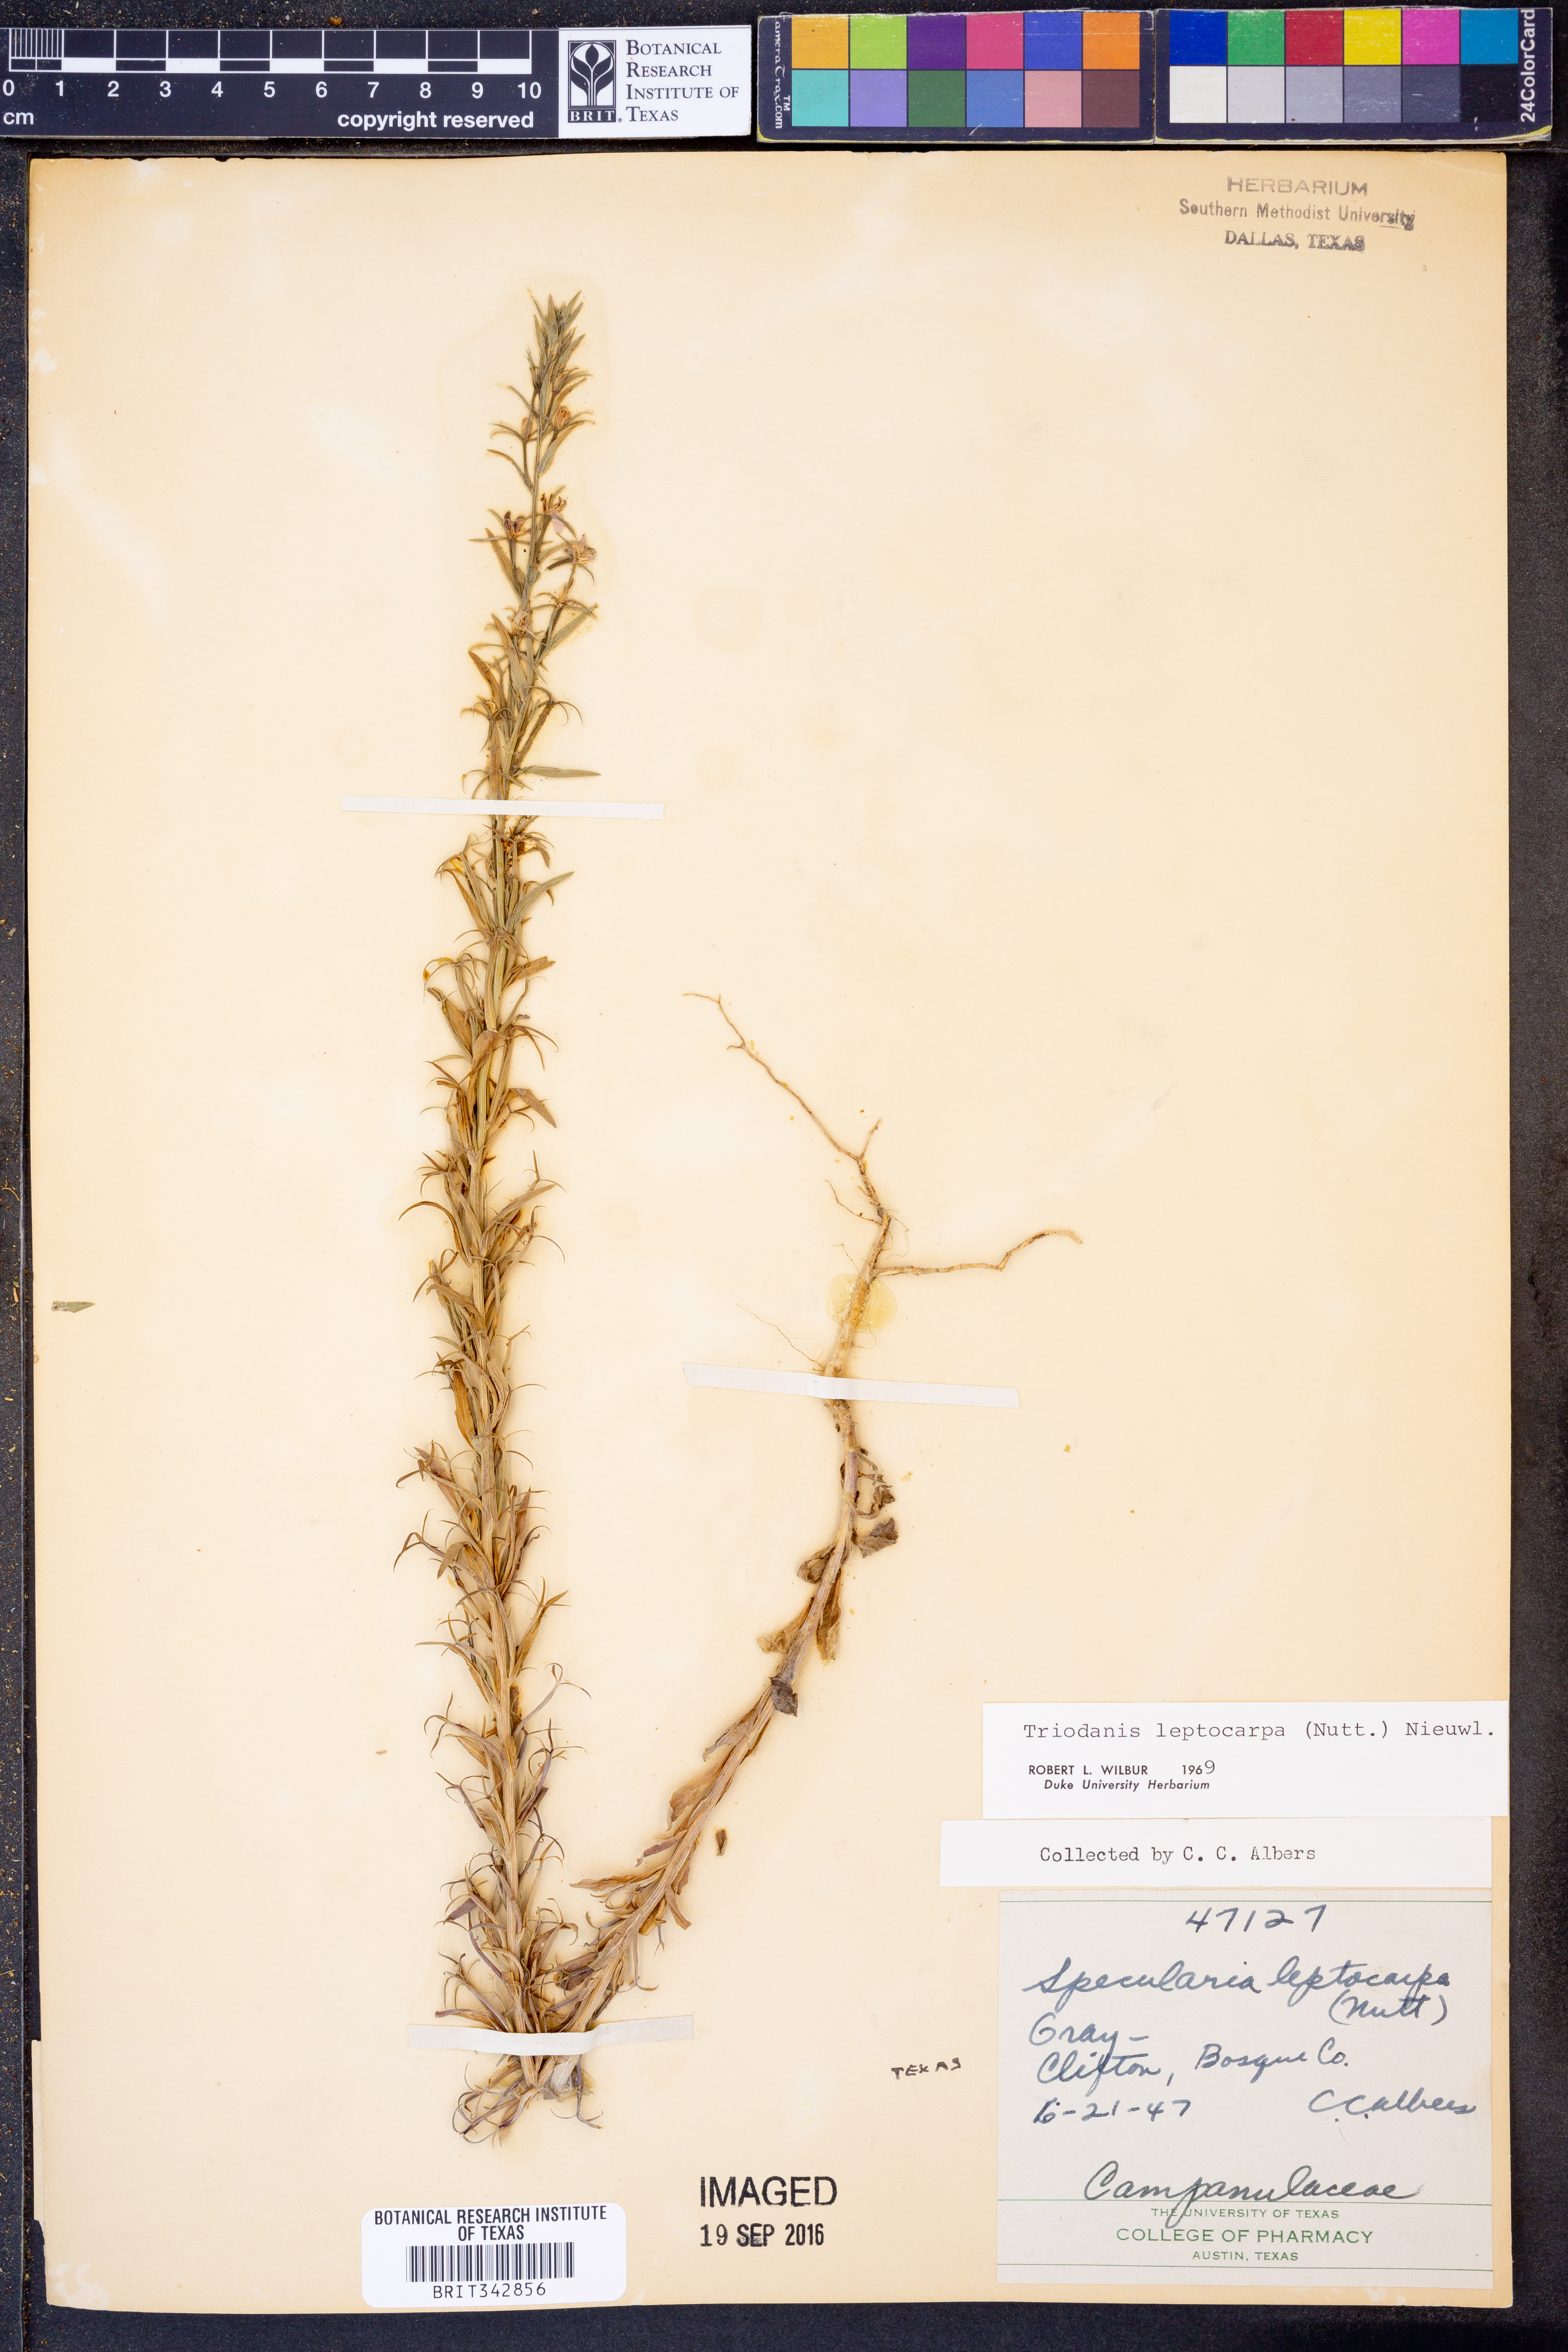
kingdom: Plantae
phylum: Tracheophyta
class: Magnoliopsida
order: Asterales
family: Campanulaceae
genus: Triodanis
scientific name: Triodanis leptocarpa
